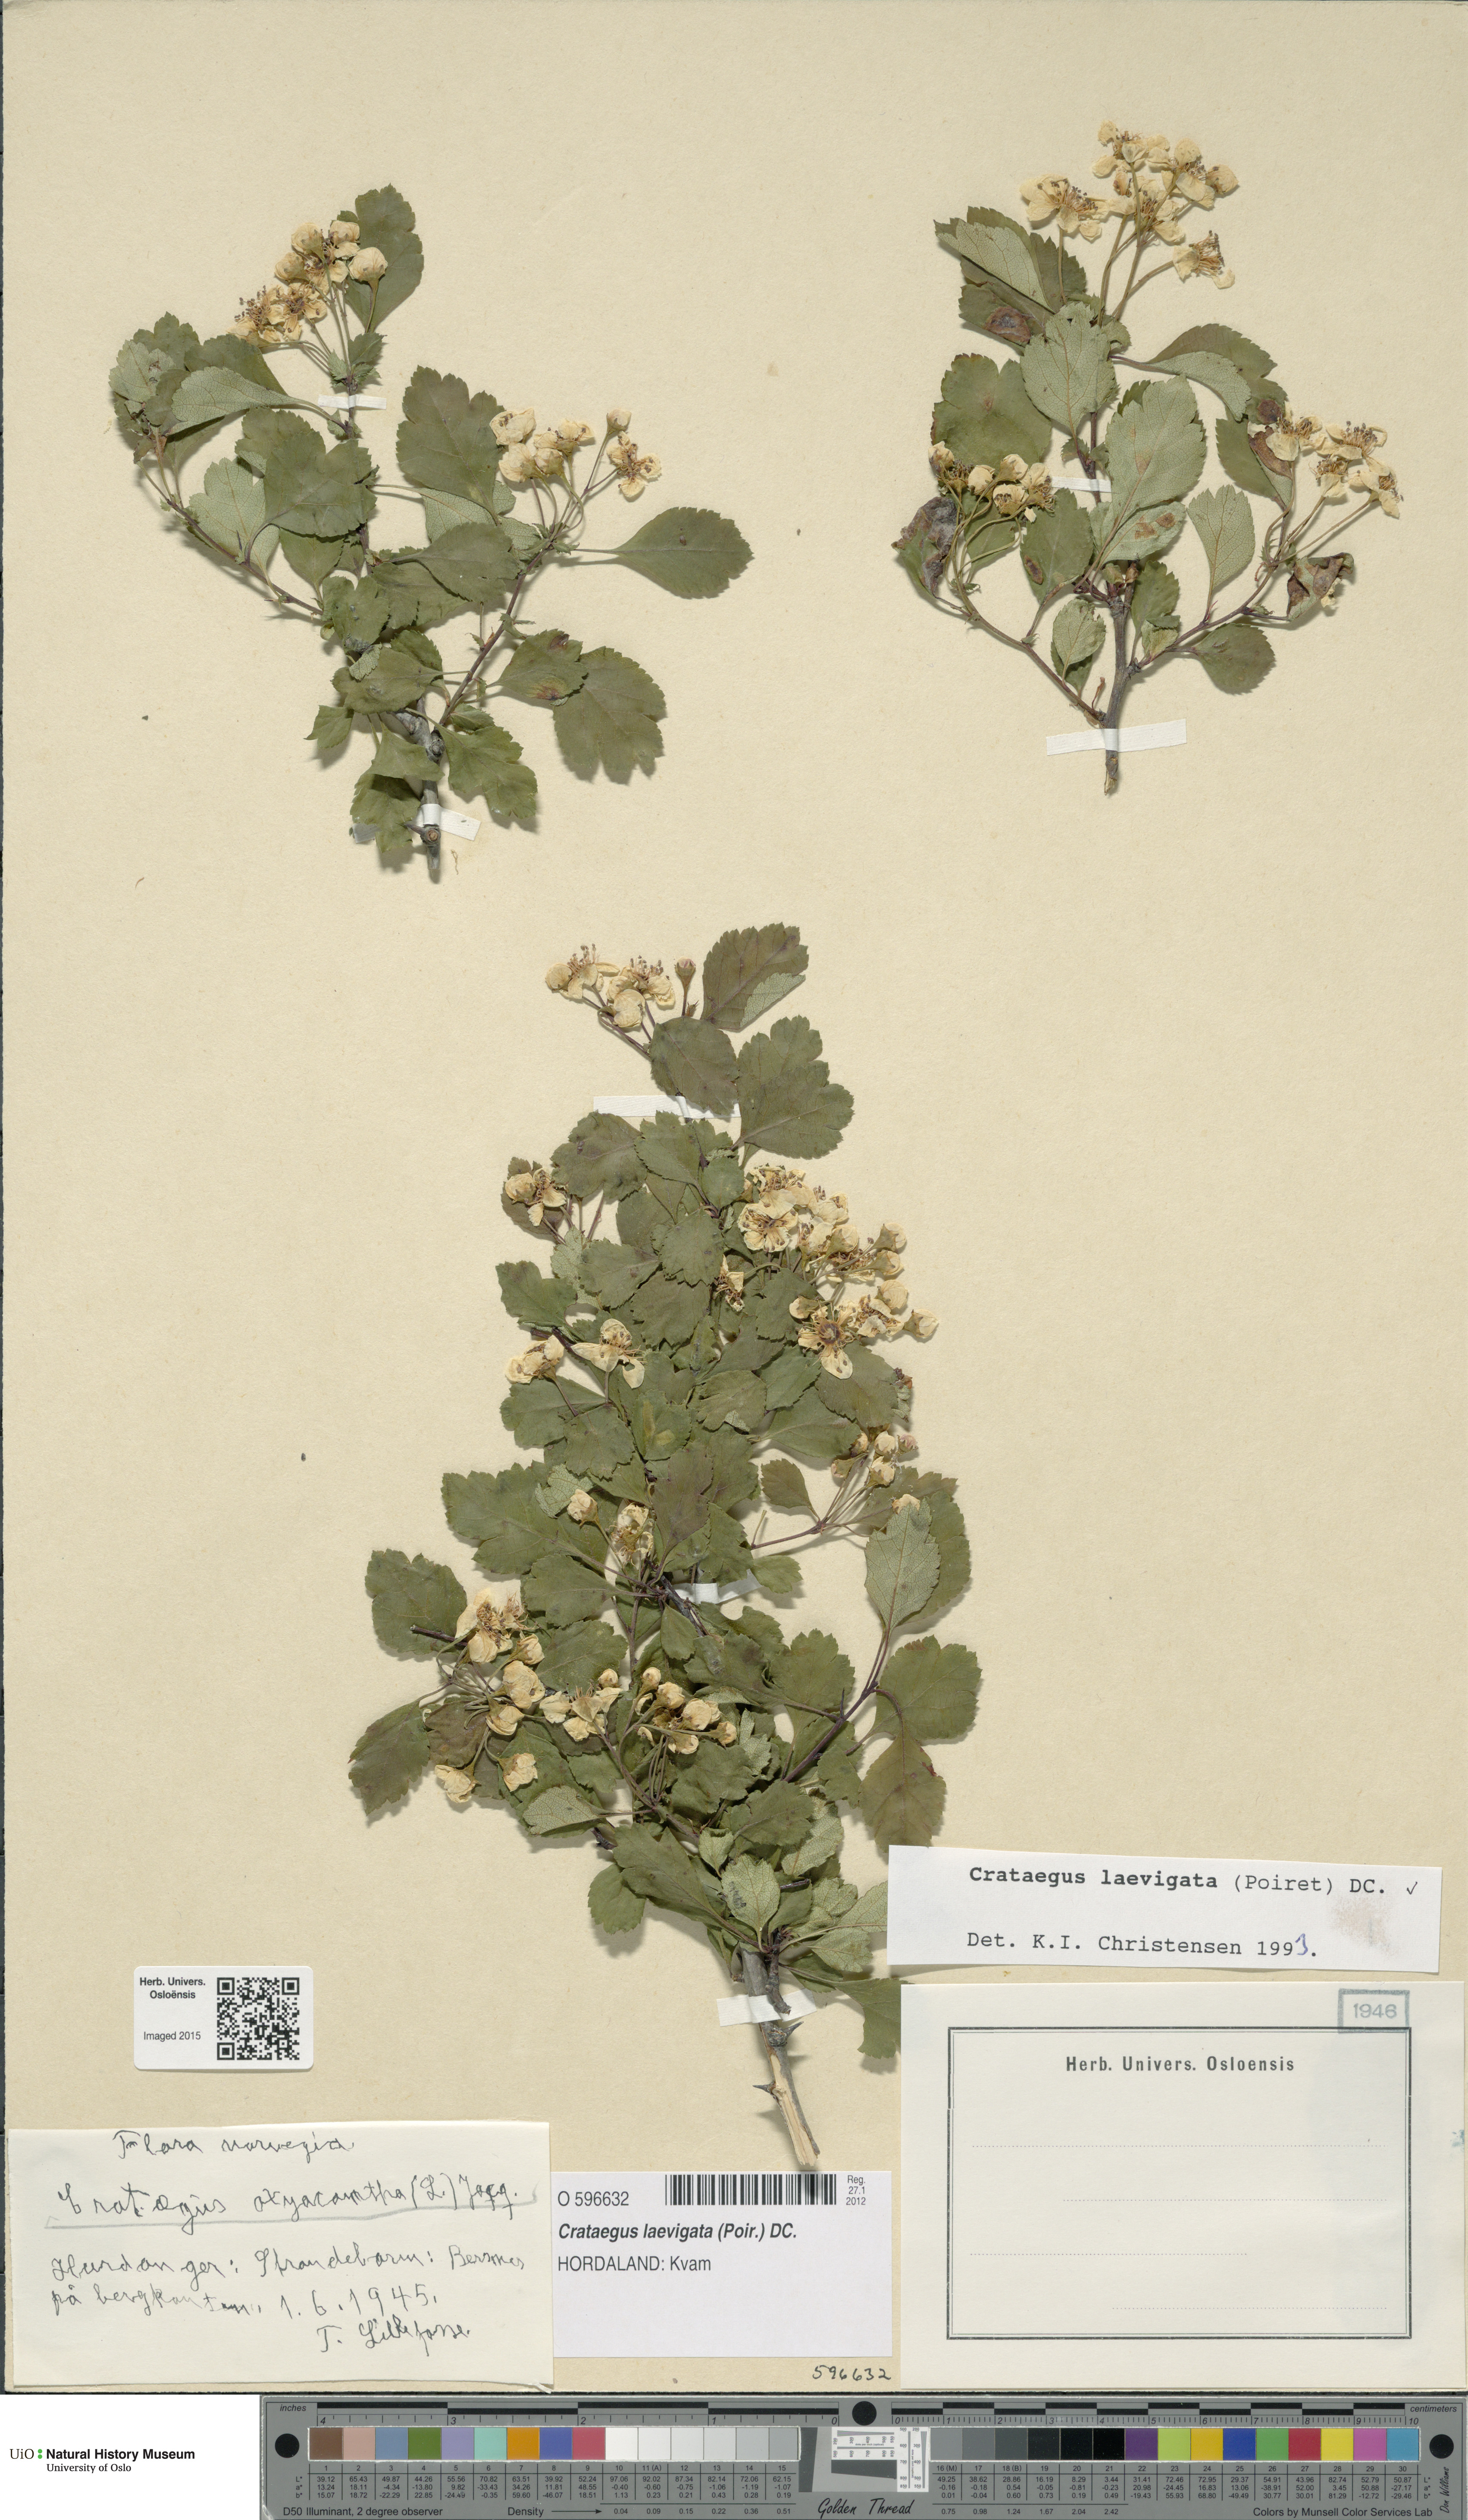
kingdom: Plantae
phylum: Tracheophyta
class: Magnoliopsida
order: Rosales
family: Rosaceae
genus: Crataegus
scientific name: Crataegus laevigata
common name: Midland hawthorn
